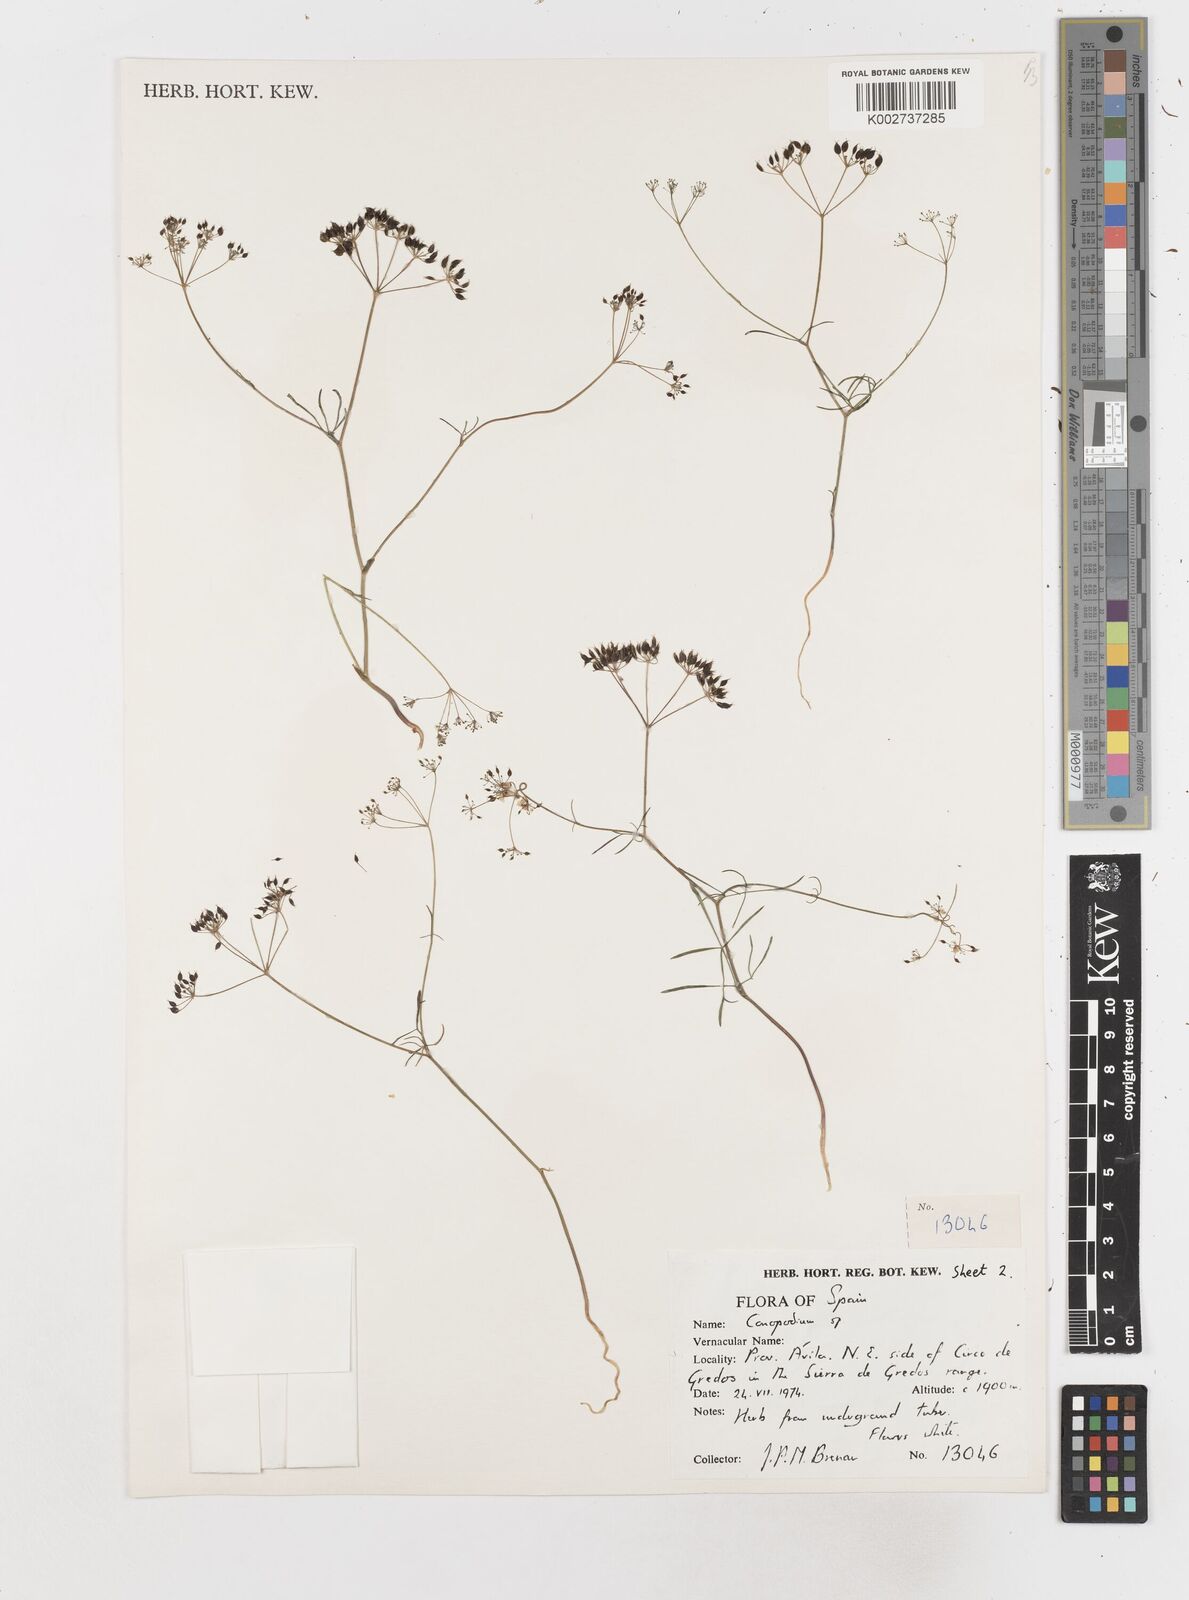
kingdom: Plantae
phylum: Tracheophyta
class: Magnoliopsida
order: Apiales
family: Apiaceae
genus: Conopodium
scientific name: Conopodium
